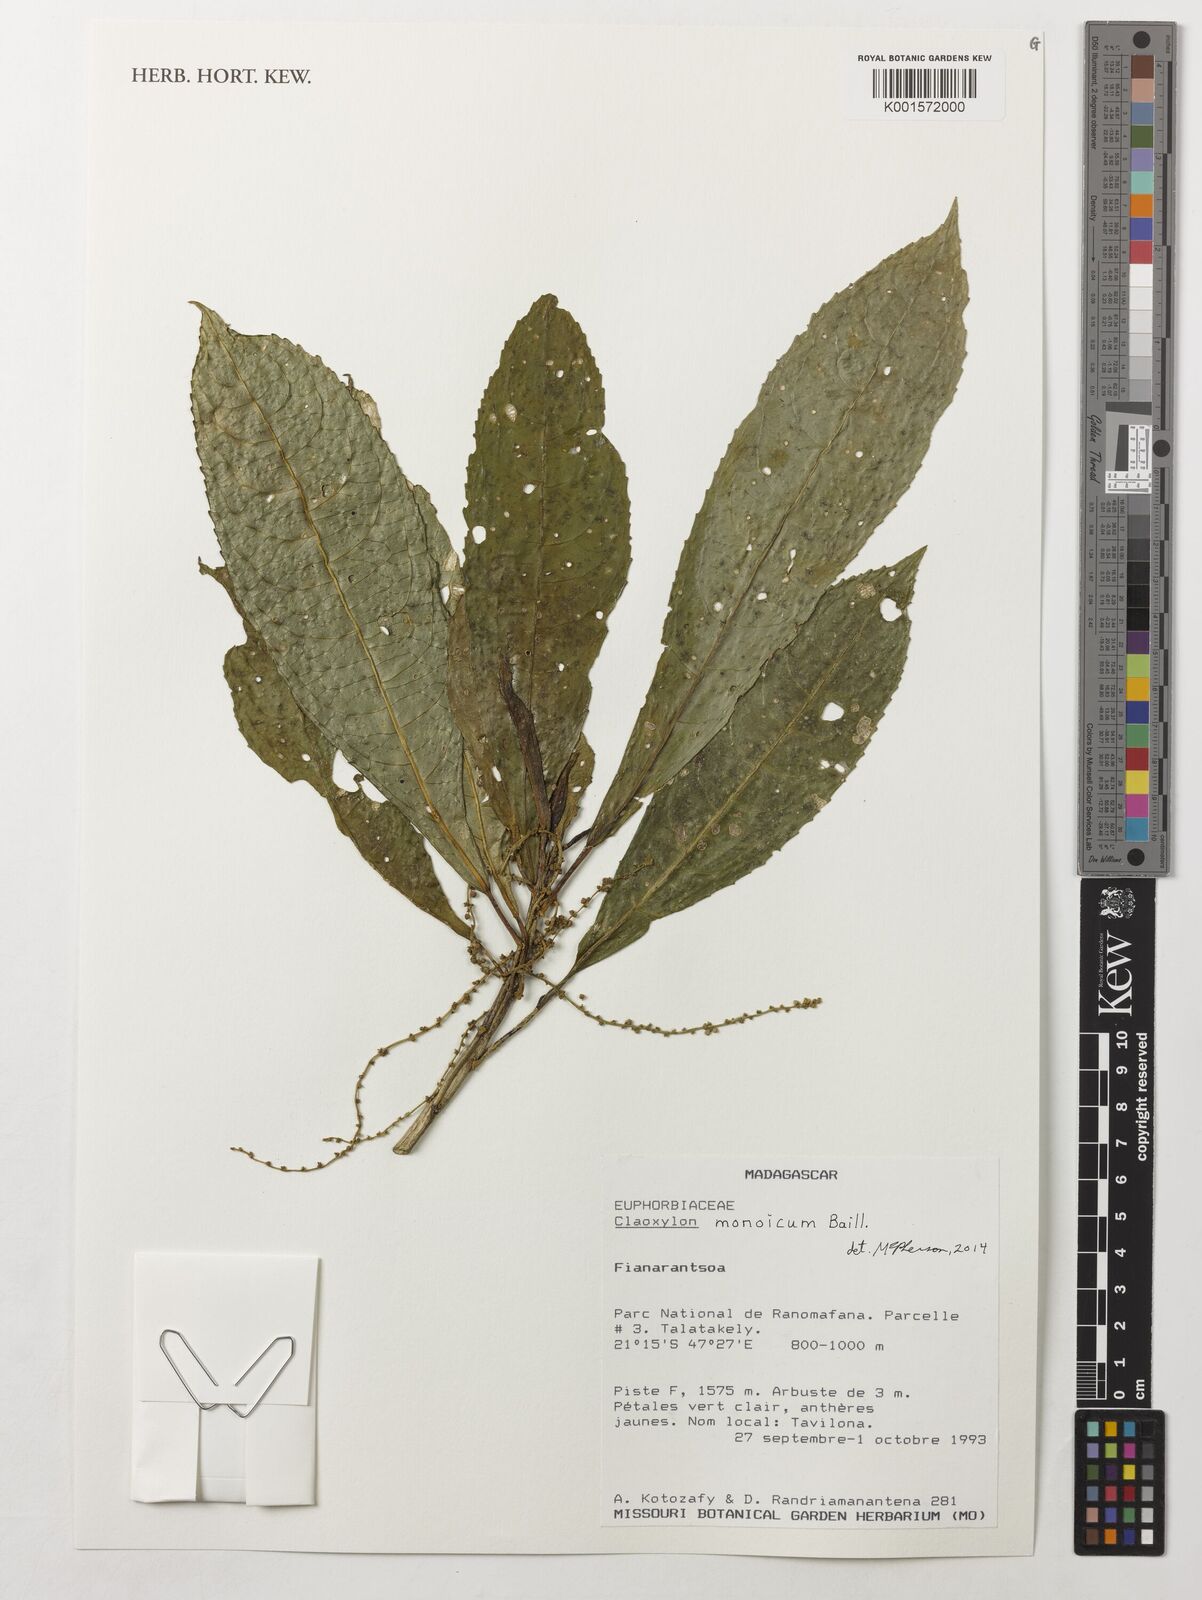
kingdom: Plantae
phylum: Tracheophyta
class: Magnoliopsida
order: Malpighiales
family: Euphorbiaceae
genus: Claoxylon
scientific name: Claoxylon monoicum
